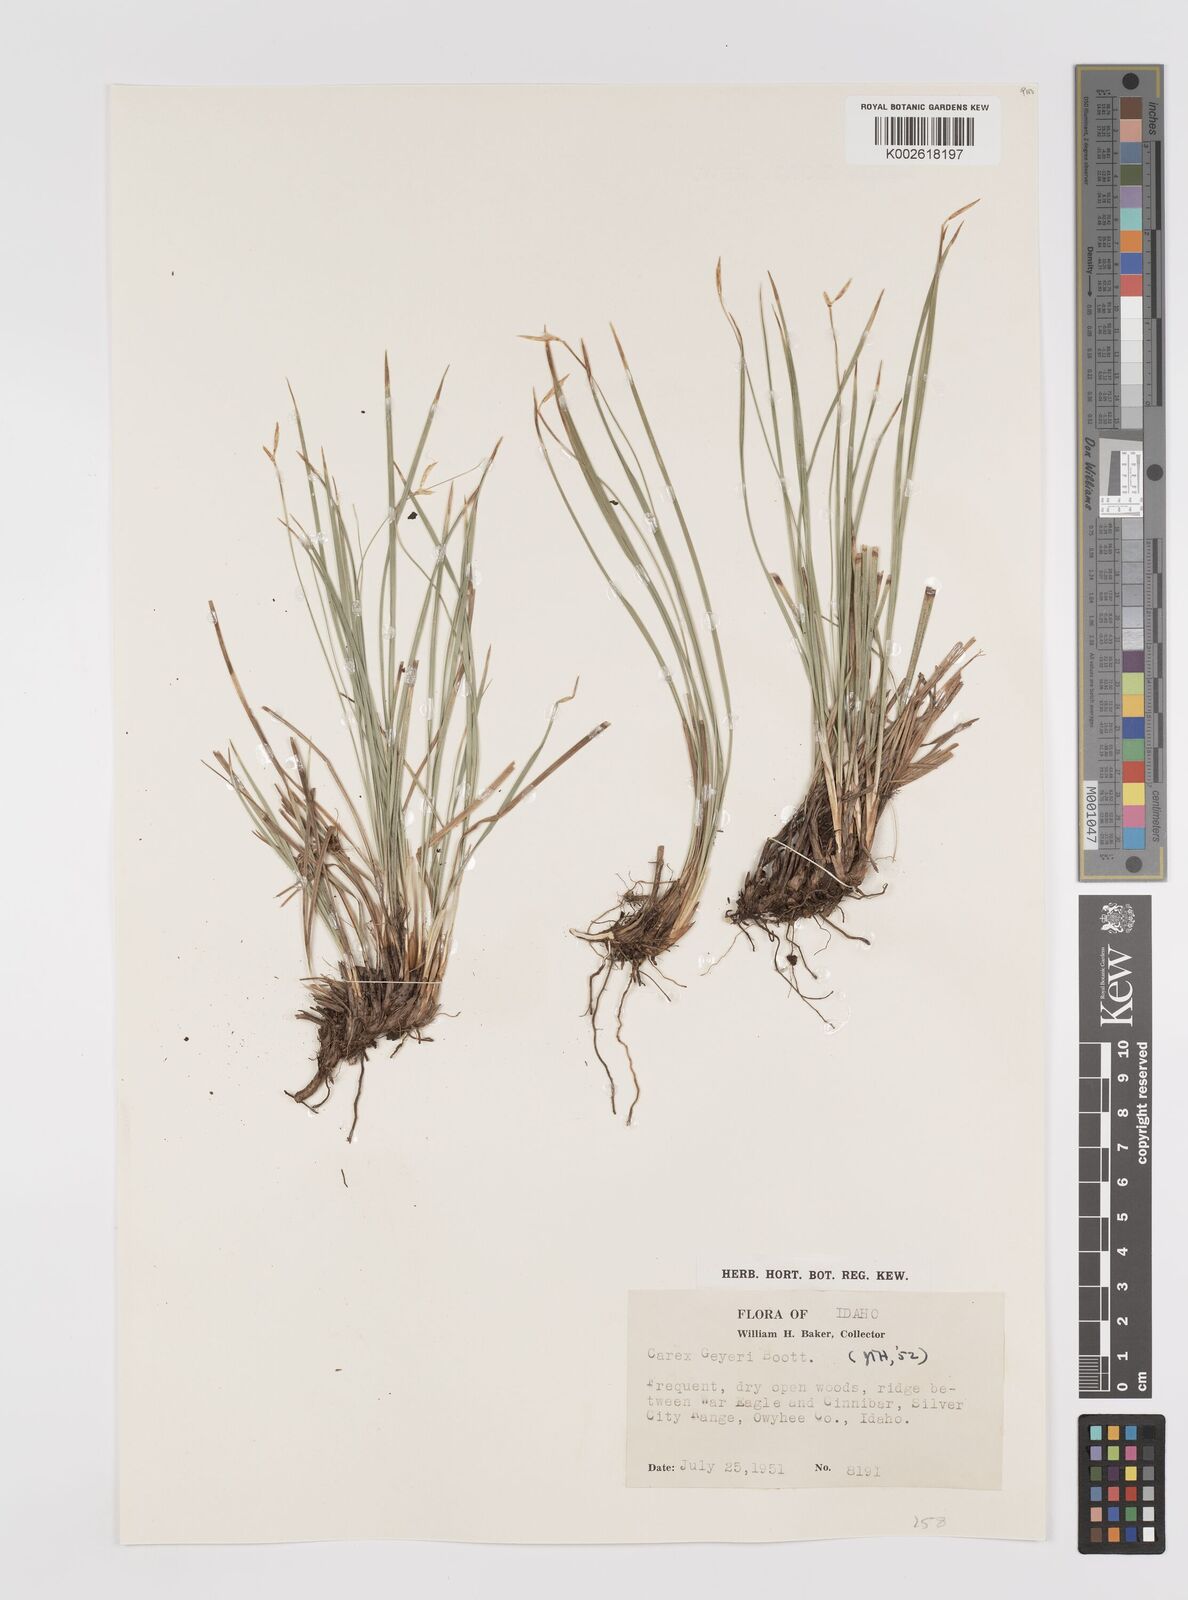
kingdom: Plantae
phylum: Tracheophyta
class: Liliopsida
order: Poales
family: Cyperaceae
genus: Carex
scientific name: Carex geyeri
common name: Elk sedge
